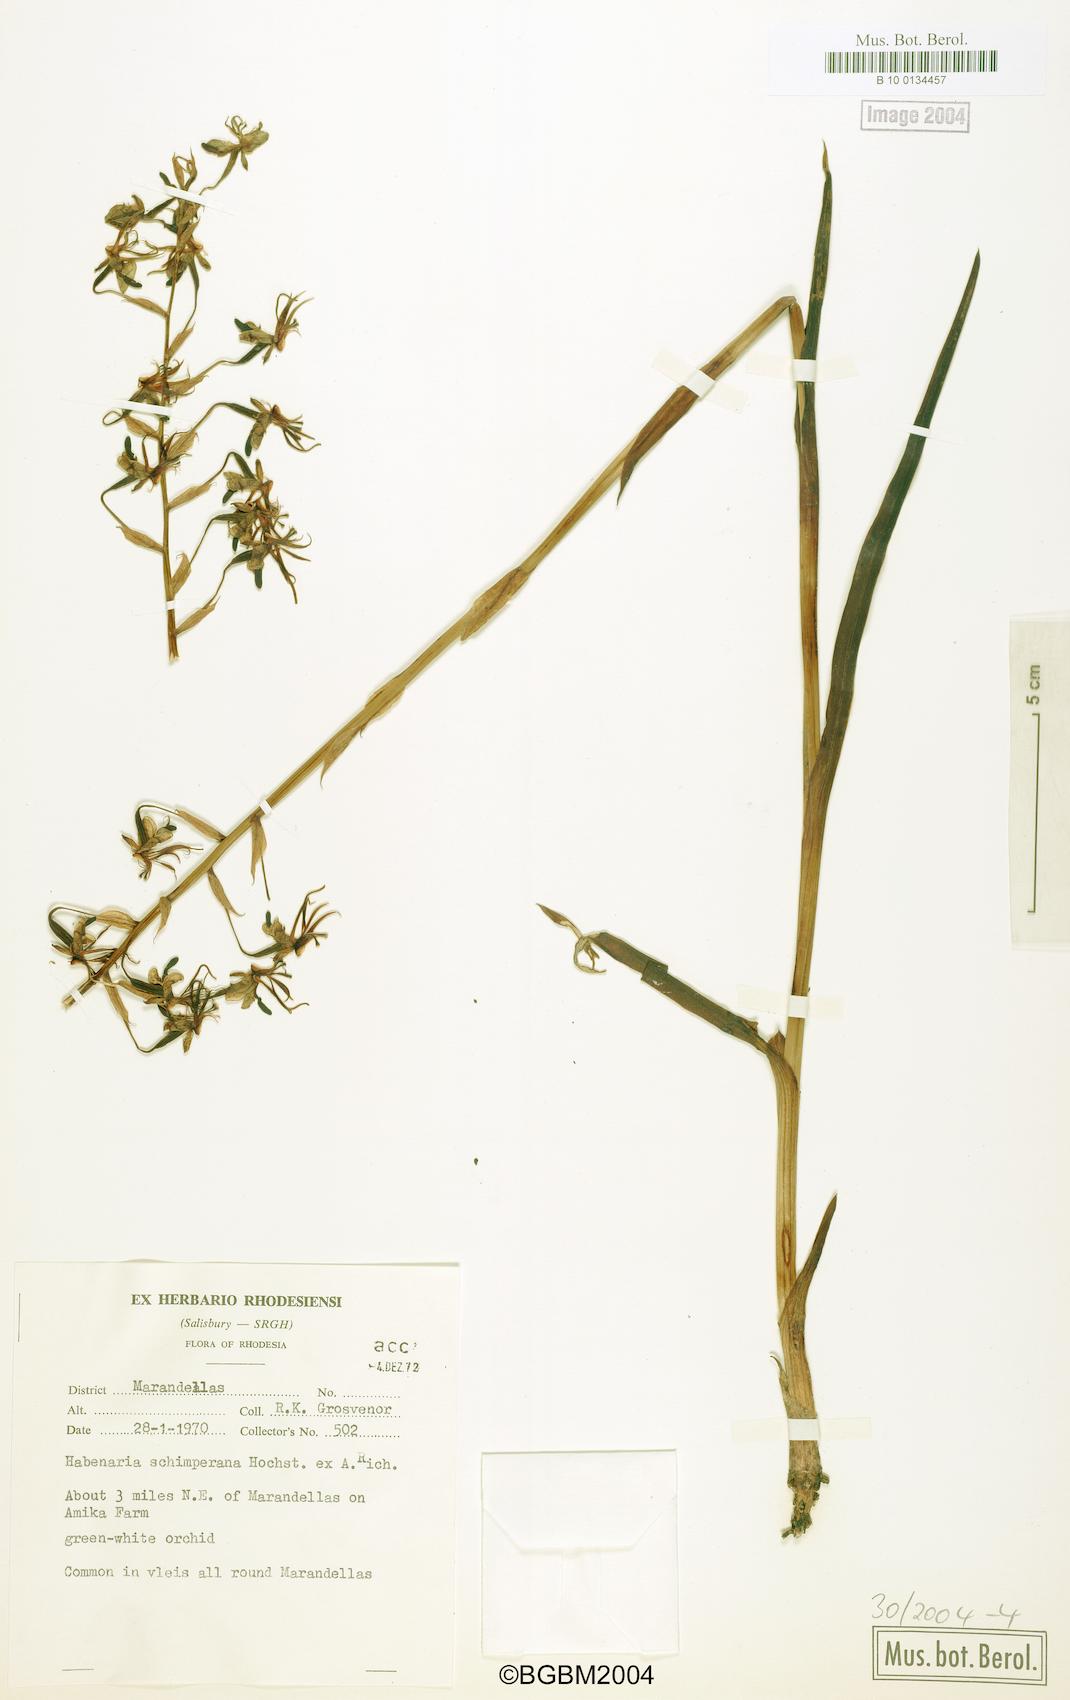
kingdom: Plantae
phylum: Tracheophyta
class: Liliopsida
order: Asparagales
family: Orchidaceae
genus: Habenaria
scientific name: Habenaria schimperiana
